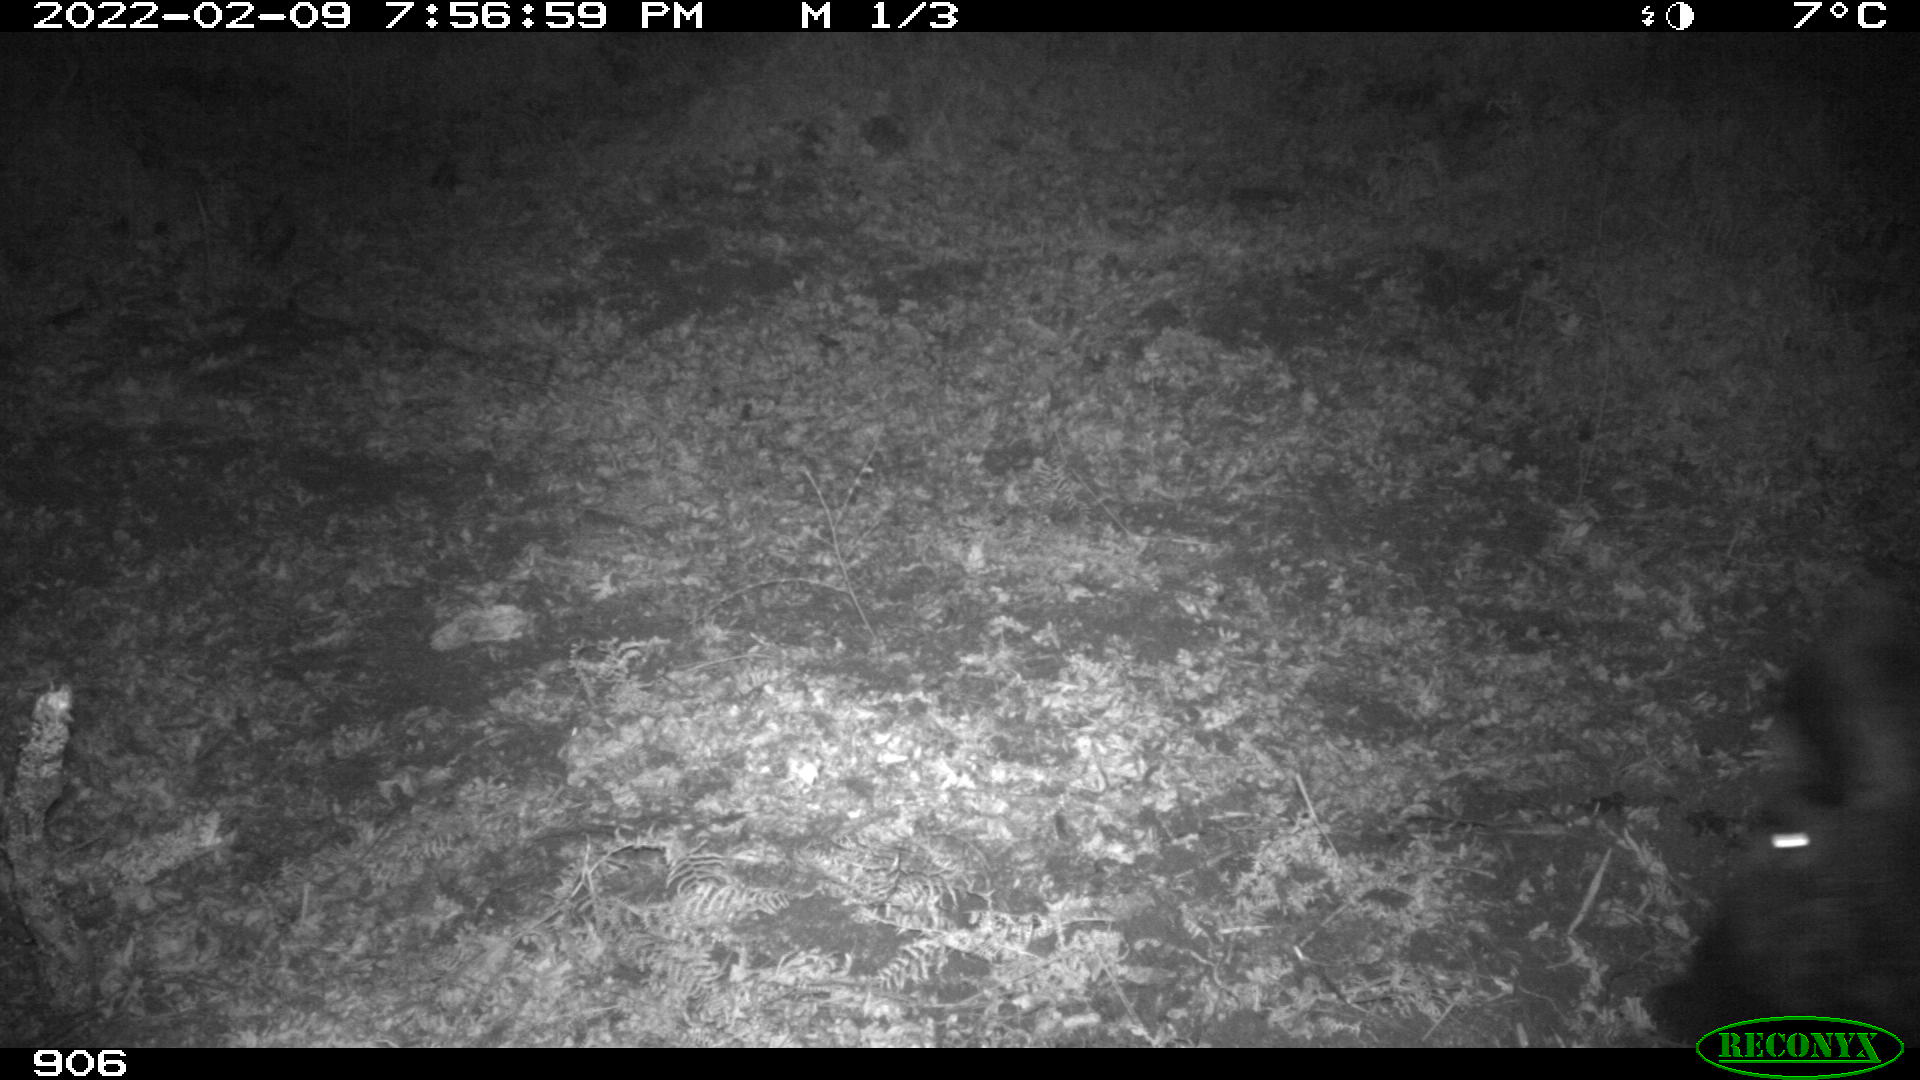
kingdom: Animalia
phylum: Chordata
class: Mammalia
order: Artiodactyla
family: Suidae
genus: Sus
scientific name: Sus scrofa
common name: Wild boar
